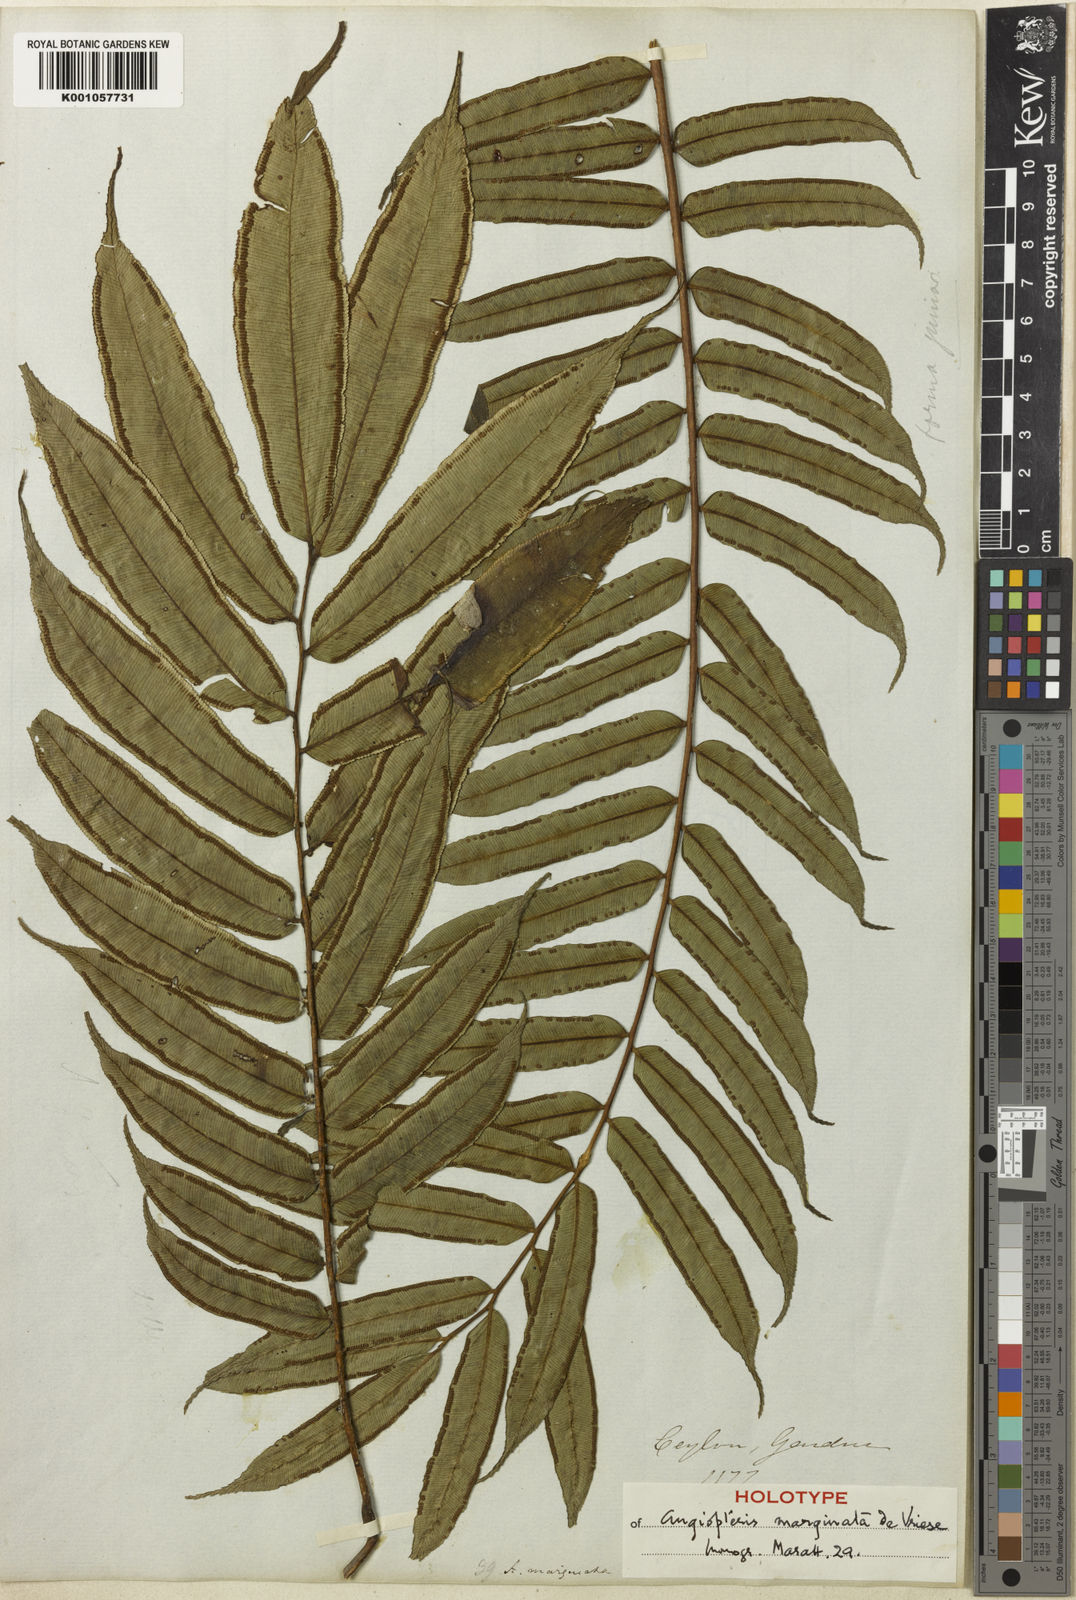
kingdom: Plantae
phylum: Tracheophyta
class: Polypodiopsida
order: Marattiales
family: Marattiaceae
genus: Angiopteris
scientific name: Angiopteris helferiana
